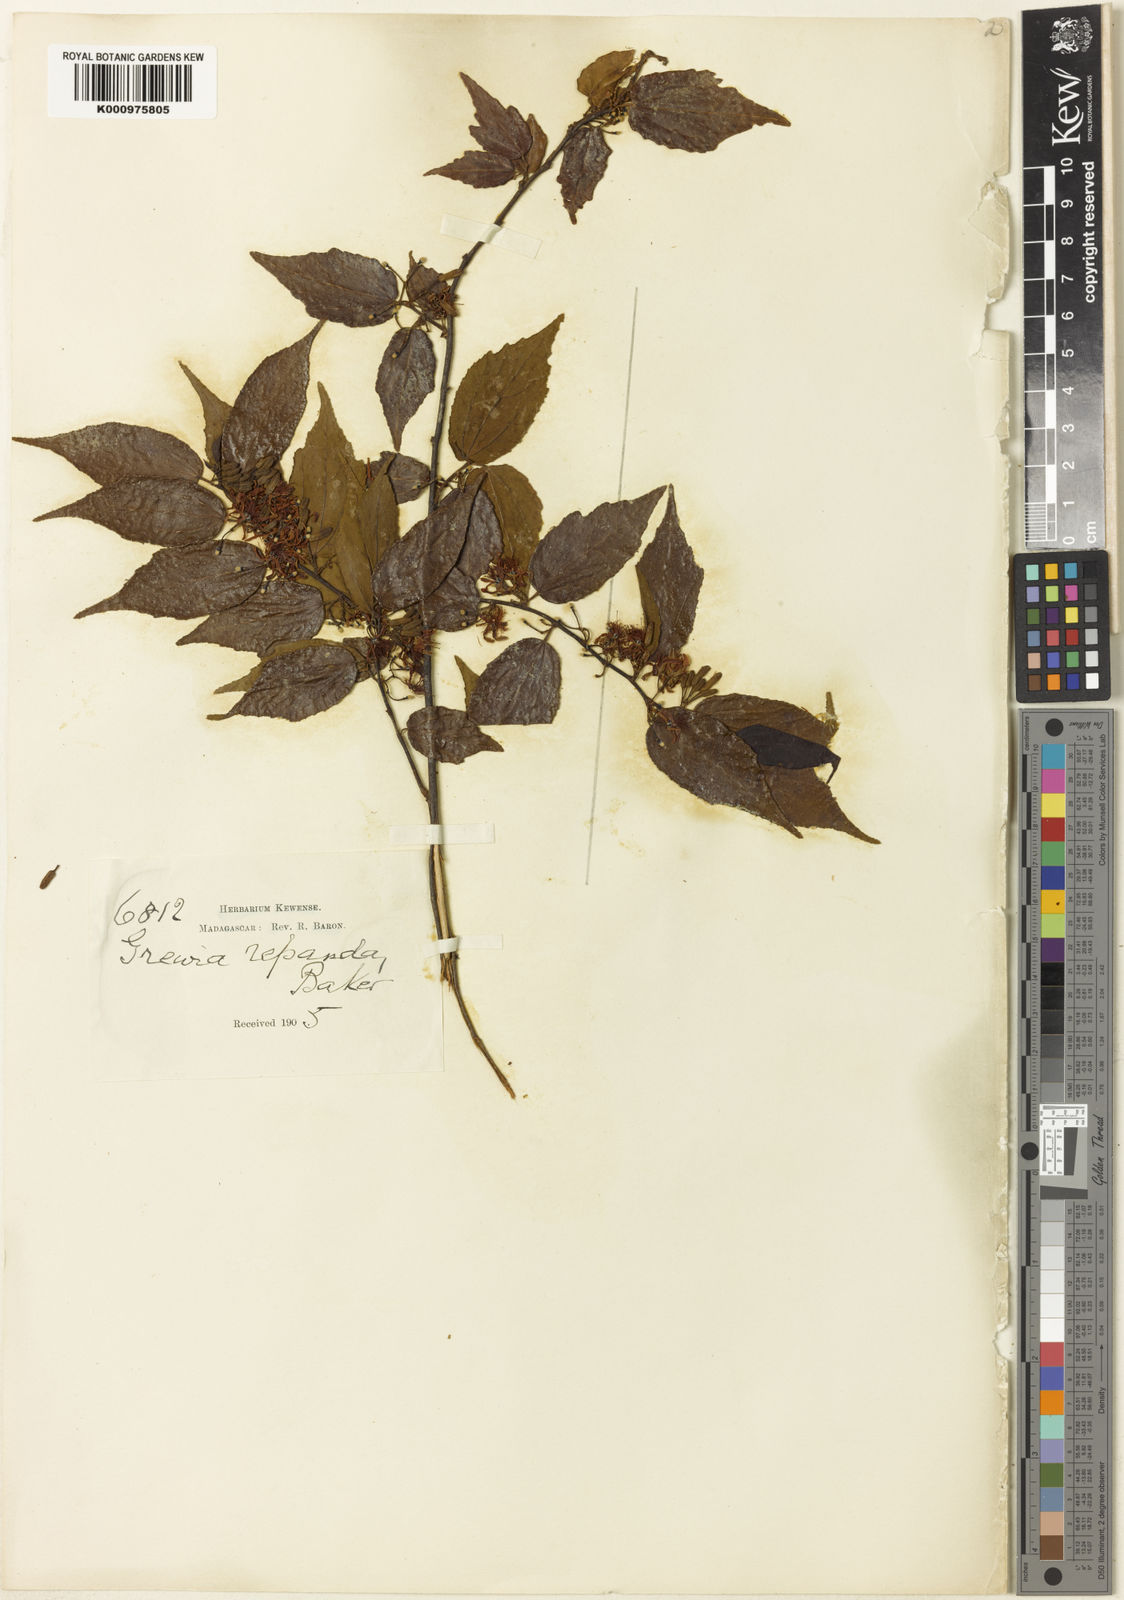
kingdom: Plantae
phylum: Tracheophyta
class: Magnoliopsida
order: Malvales
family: Malvaceae
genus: Grewia
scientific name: Grewia lavanalensis
